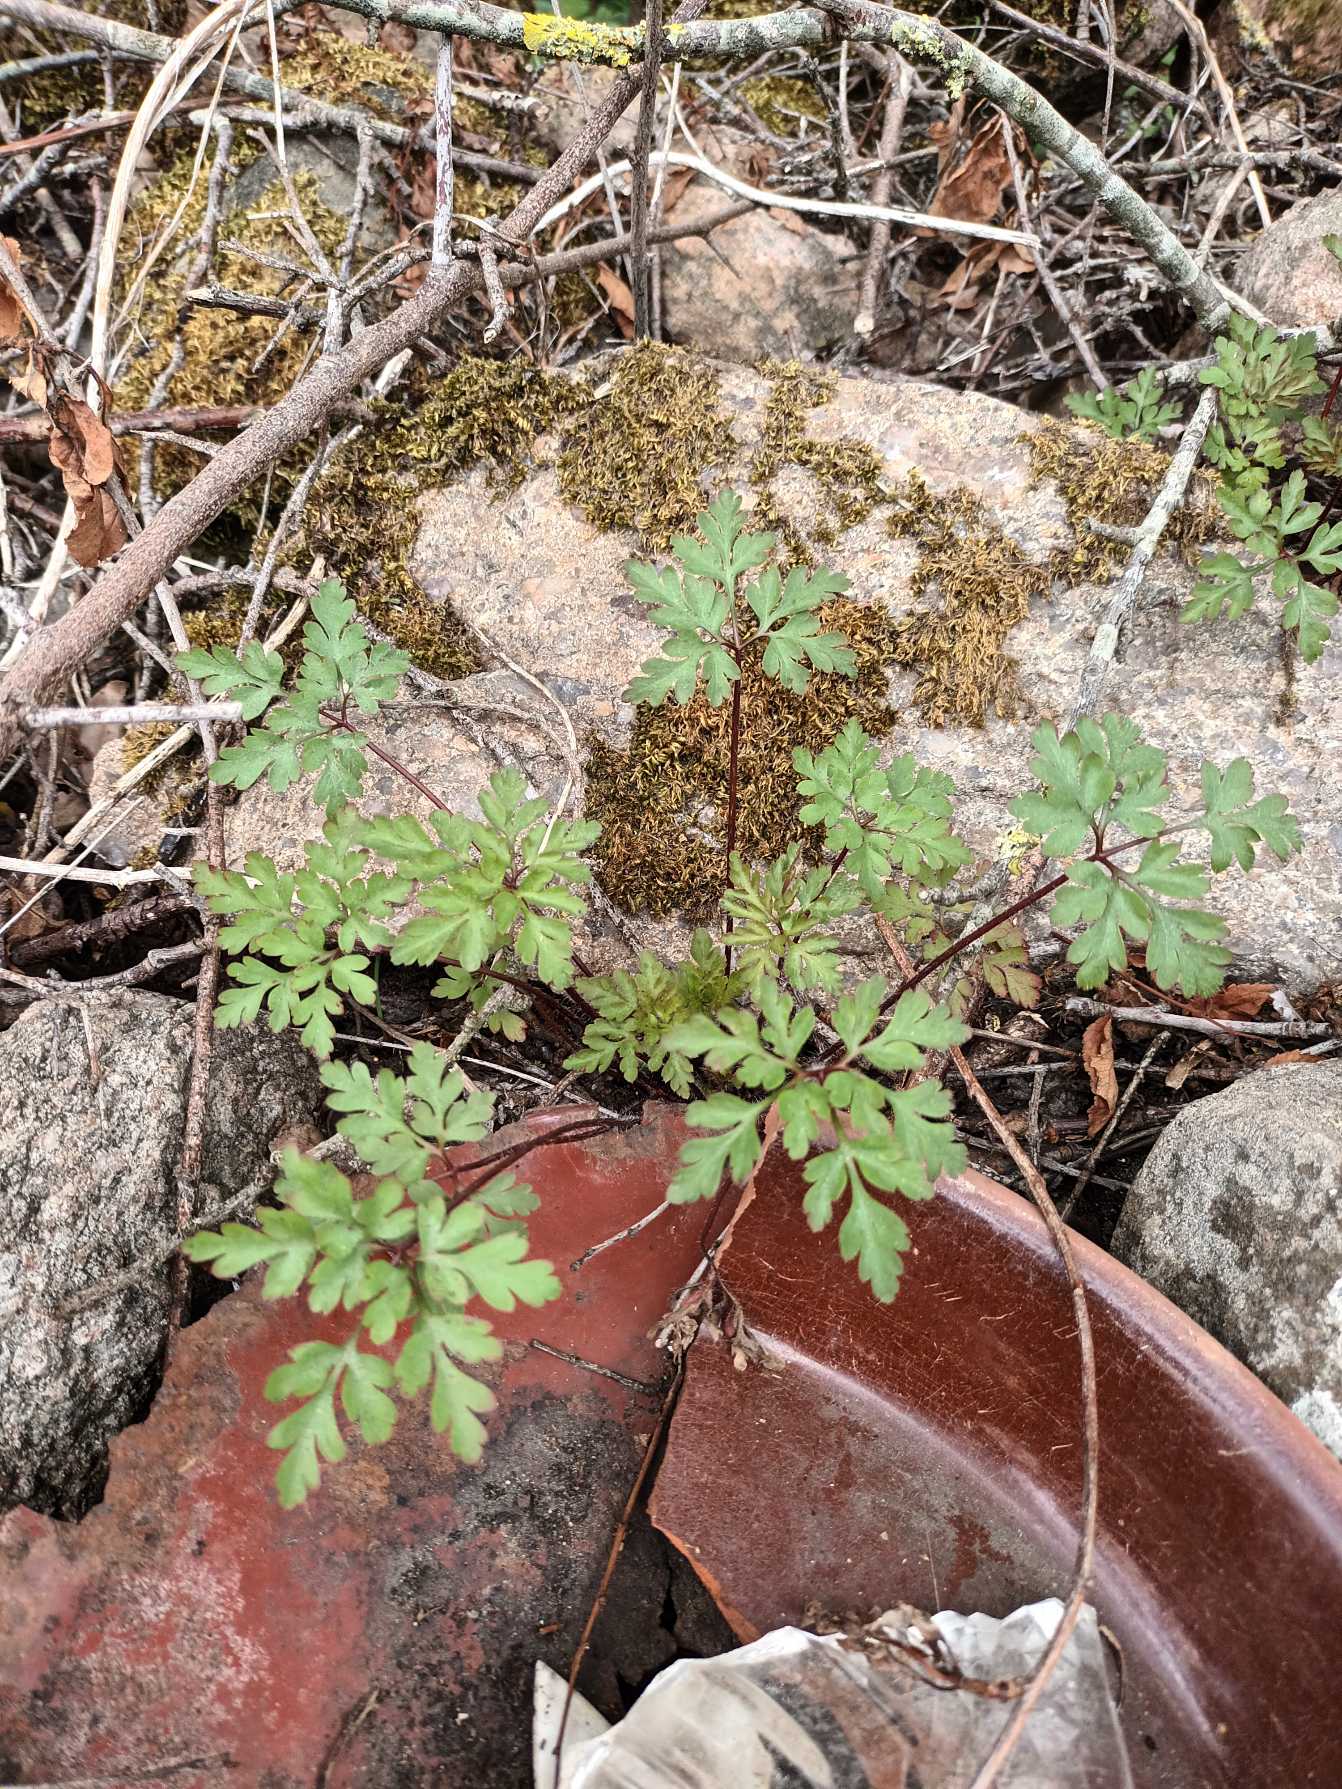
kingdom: Plantae
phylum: Tracheophyta
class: Magnoliopsida
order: Geraniales
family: Geraniaceae
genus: Geranium
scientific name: Geranium robertianum
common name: Stinkende storkenæb
